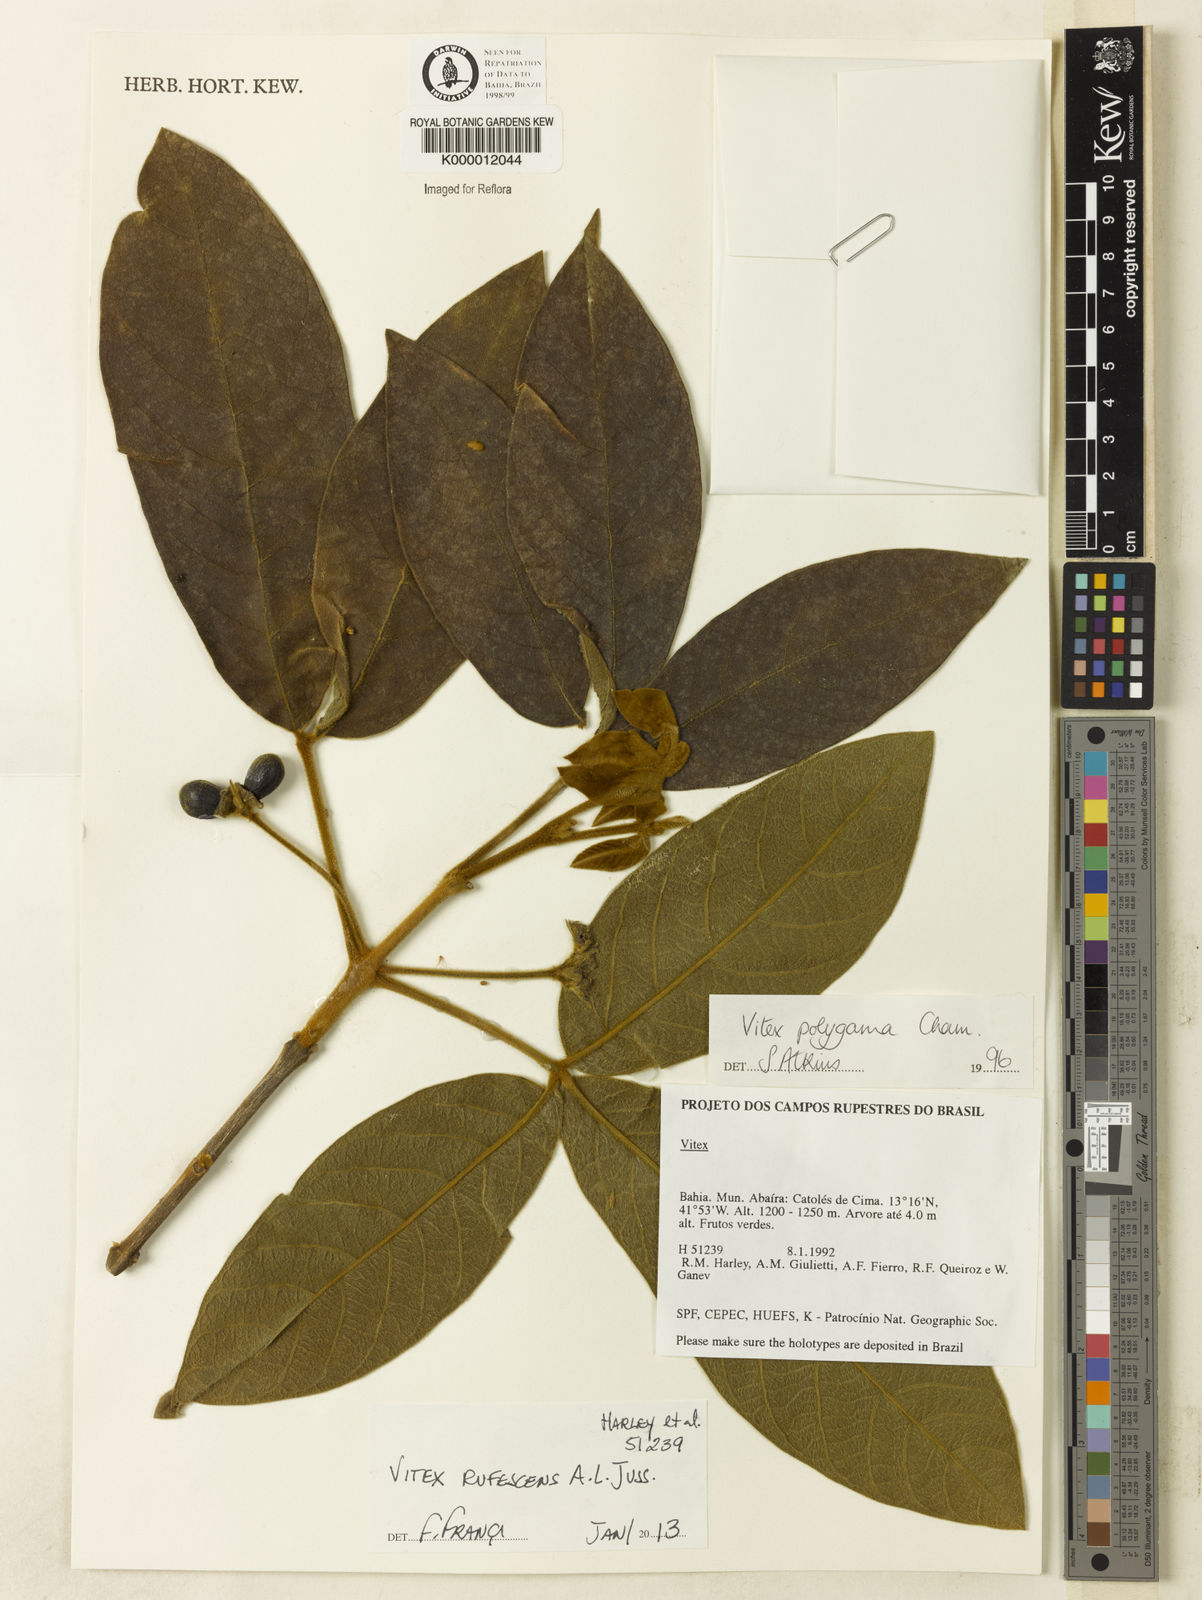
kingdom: Plantae
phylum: Tracheophyta
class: Magnoliopsida
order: Lamiales
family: Lamiaceae
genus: Vitex
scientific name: Vitex rufescens
